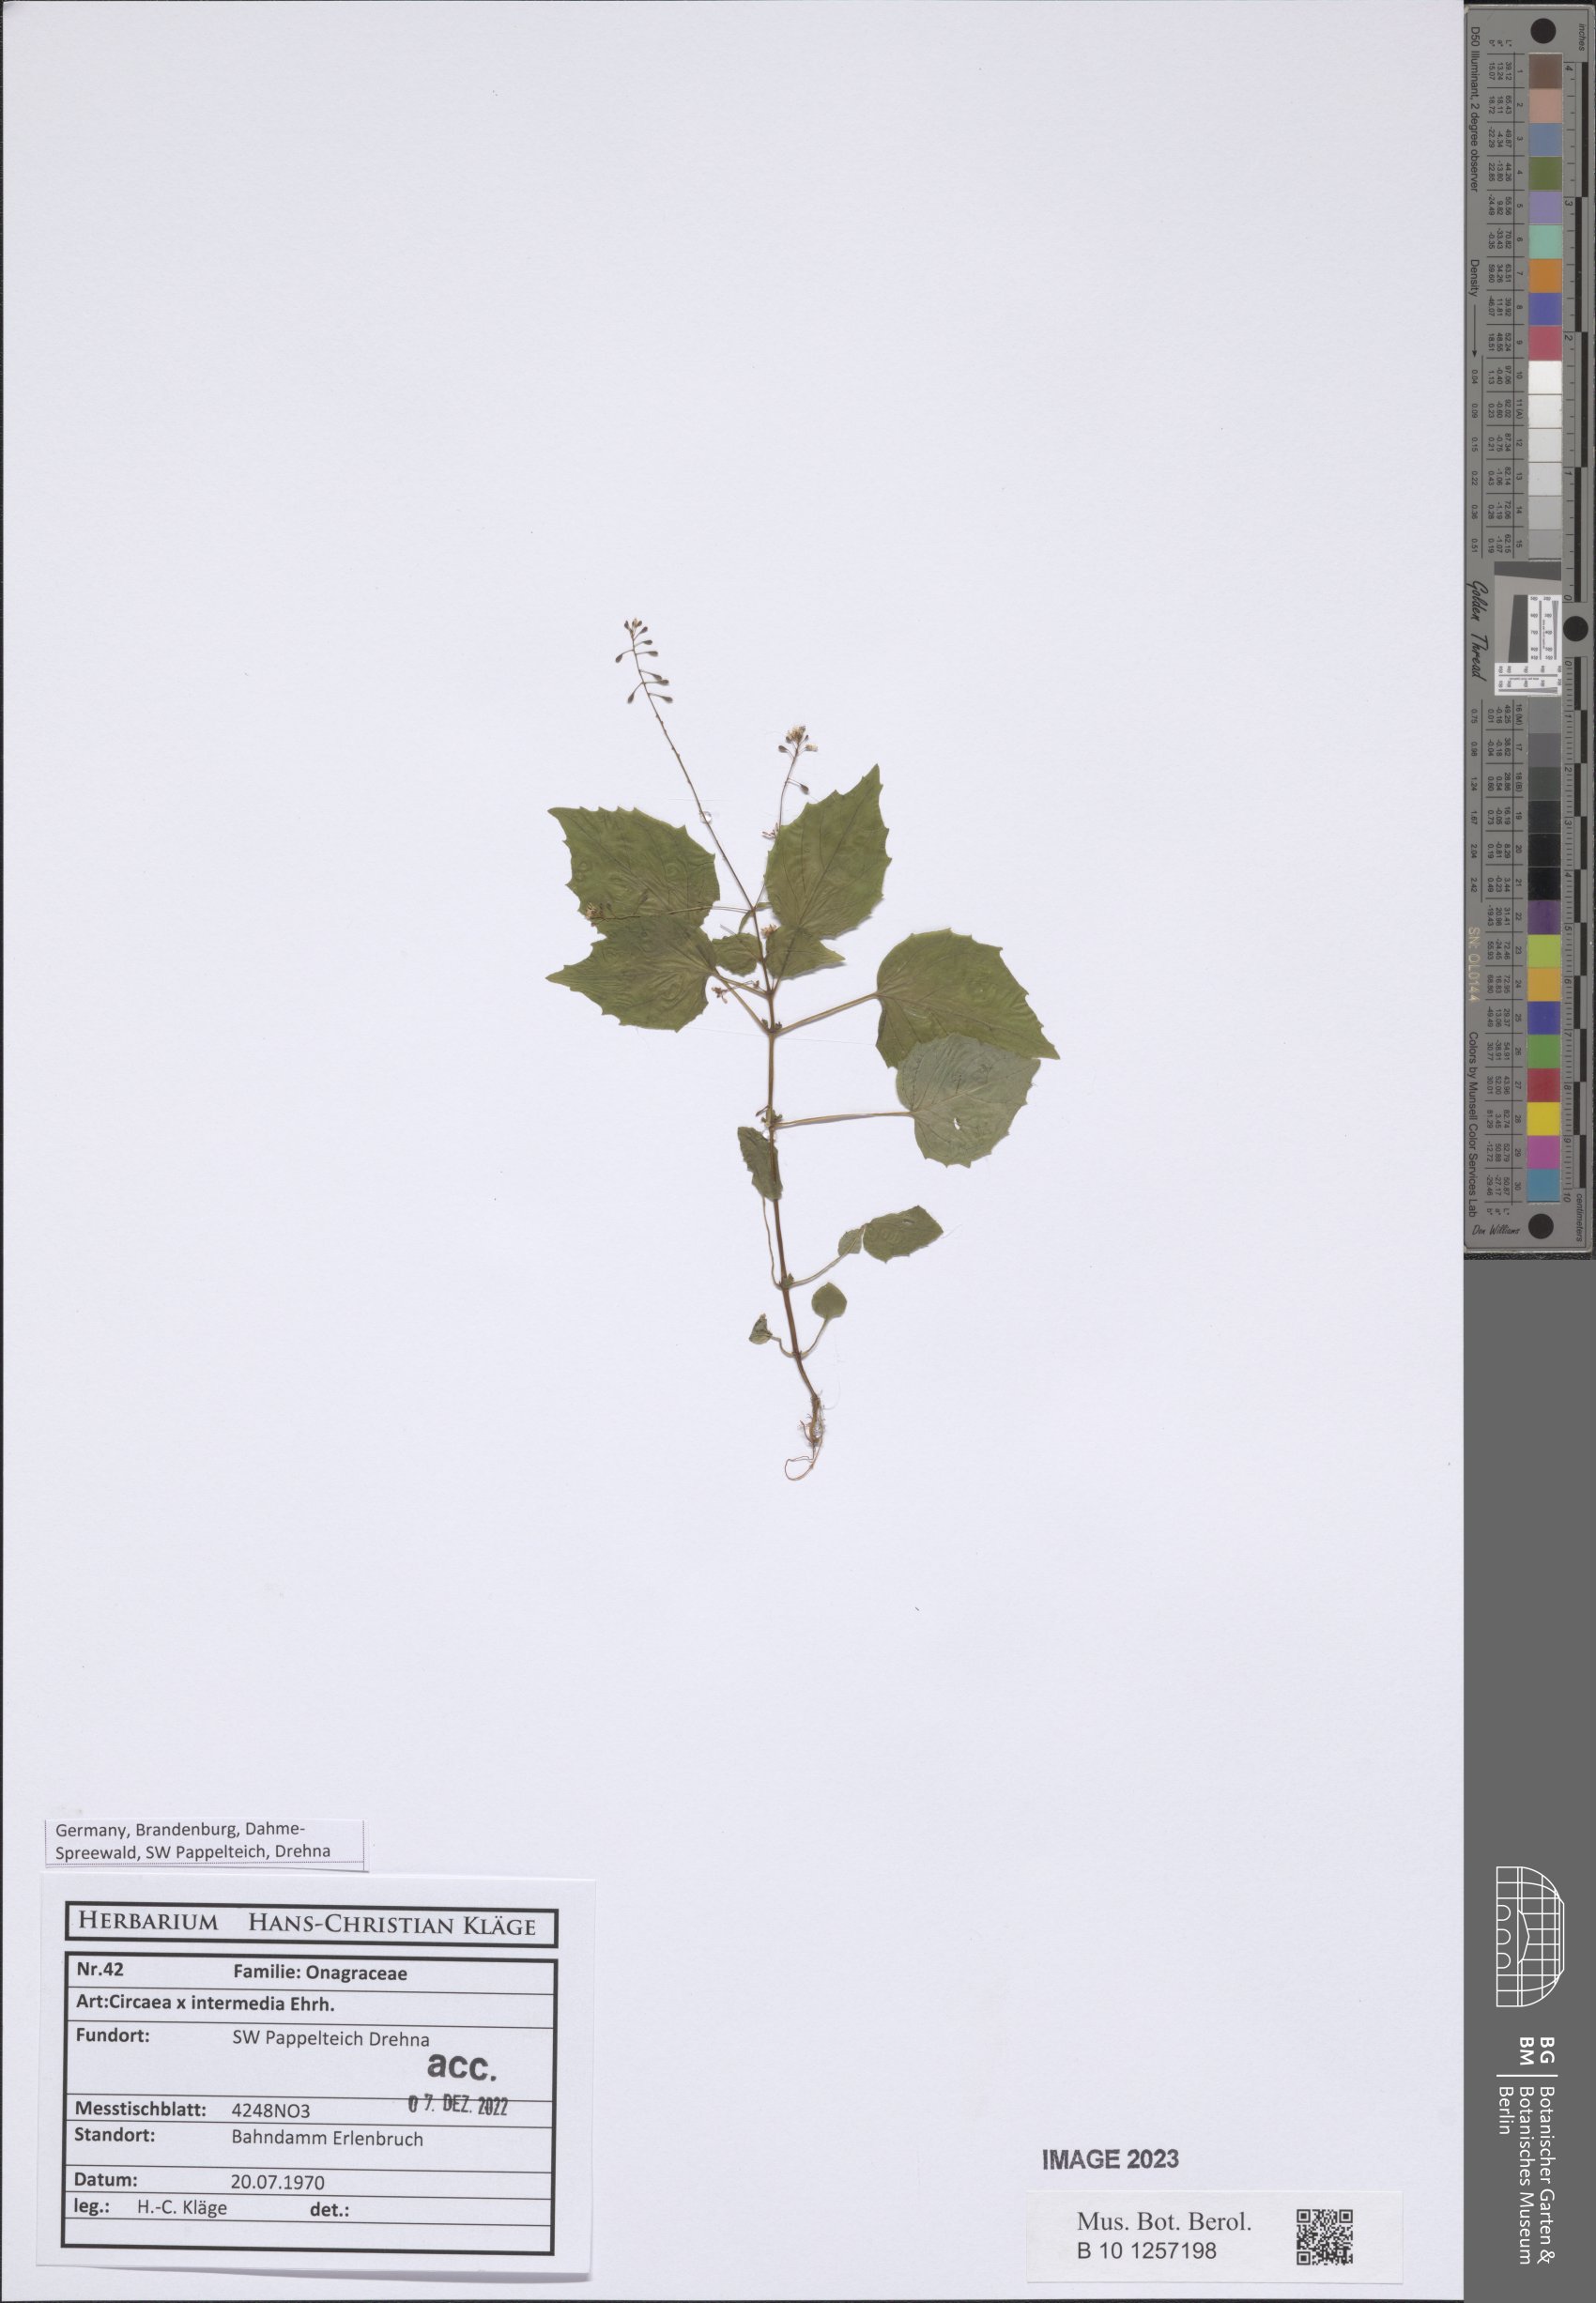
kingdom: Plantae
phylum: Tracheophyta
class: Magnoliopsida
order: Myrtales
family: Onagraceae
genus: Circaea
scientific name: Circaea
